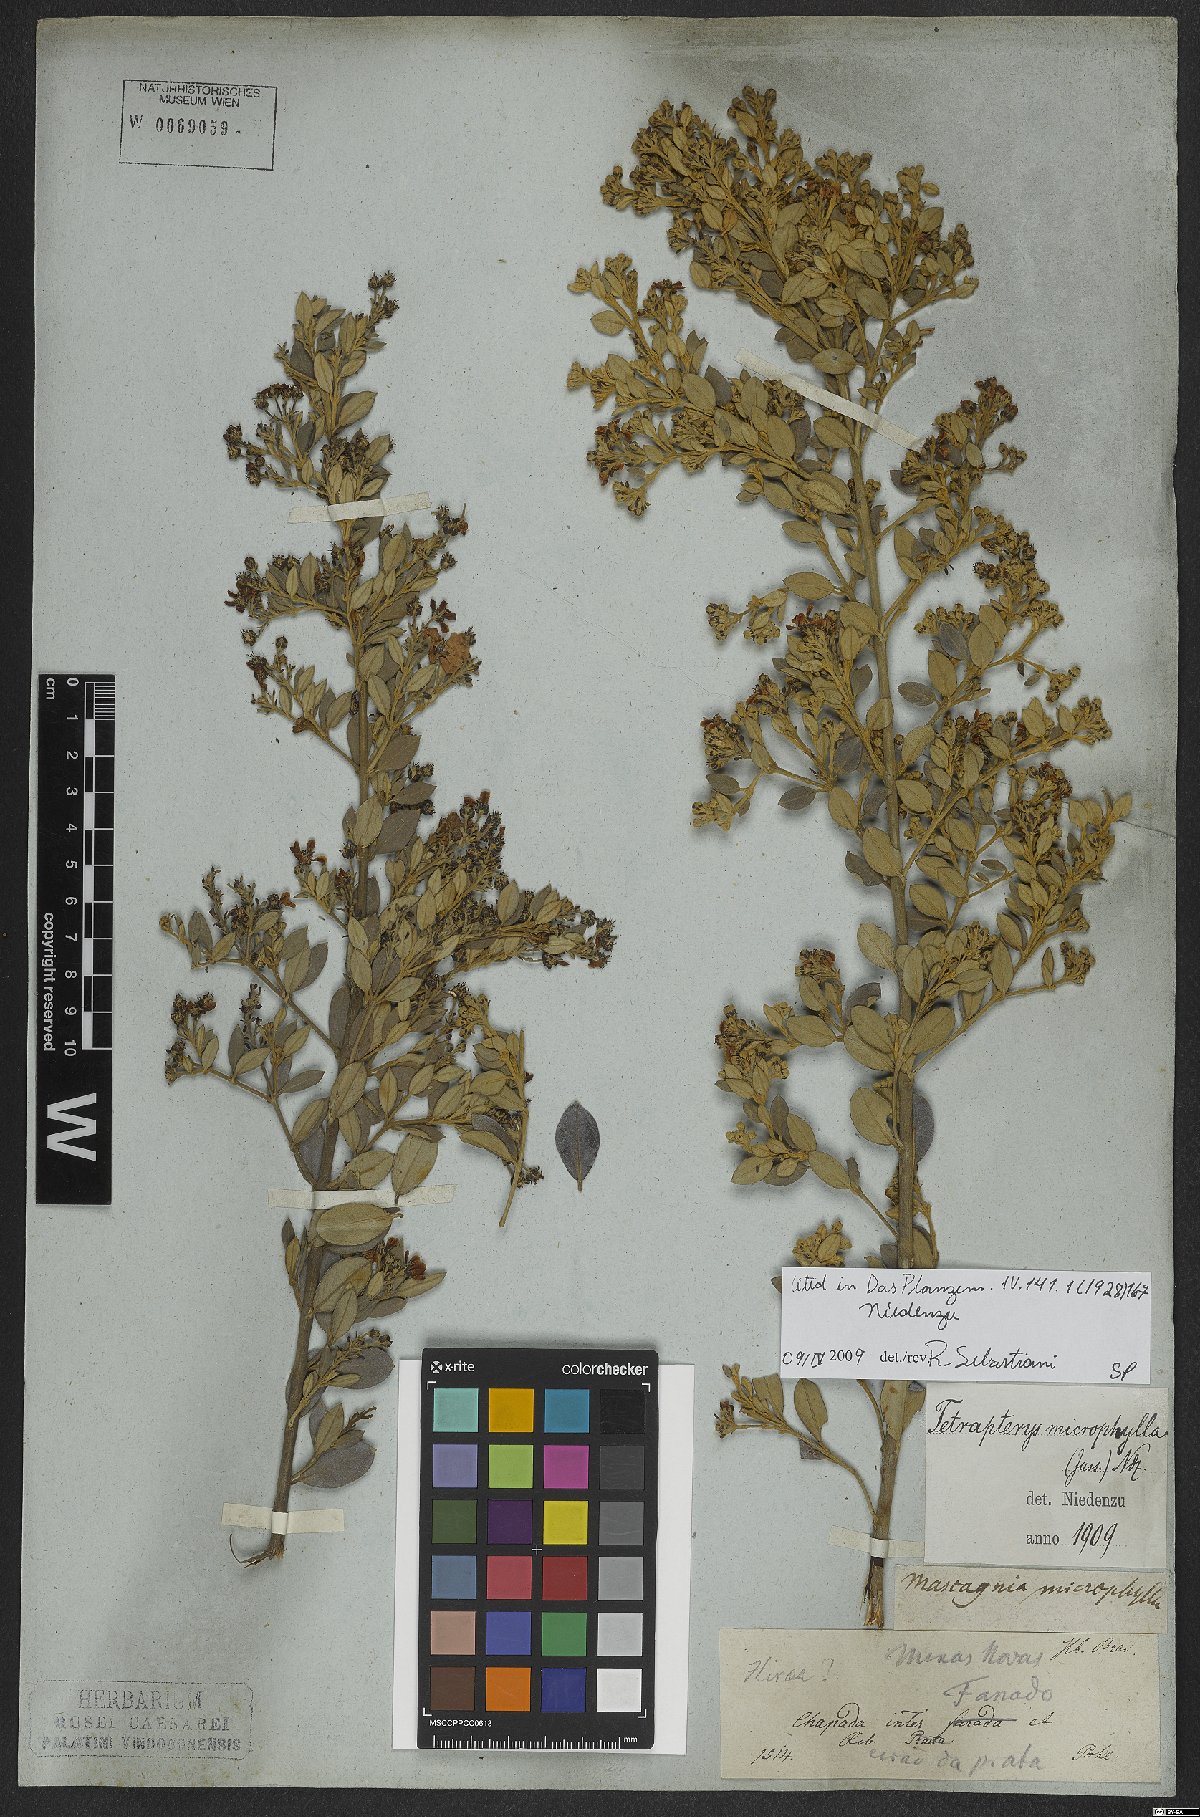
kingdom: Plantae
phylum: Tracheophyta
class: Magnoliopsida
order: Malpighiales
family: Malpighiaceae
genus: Glicophyllum
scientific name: Glicophyllum microphyllum
